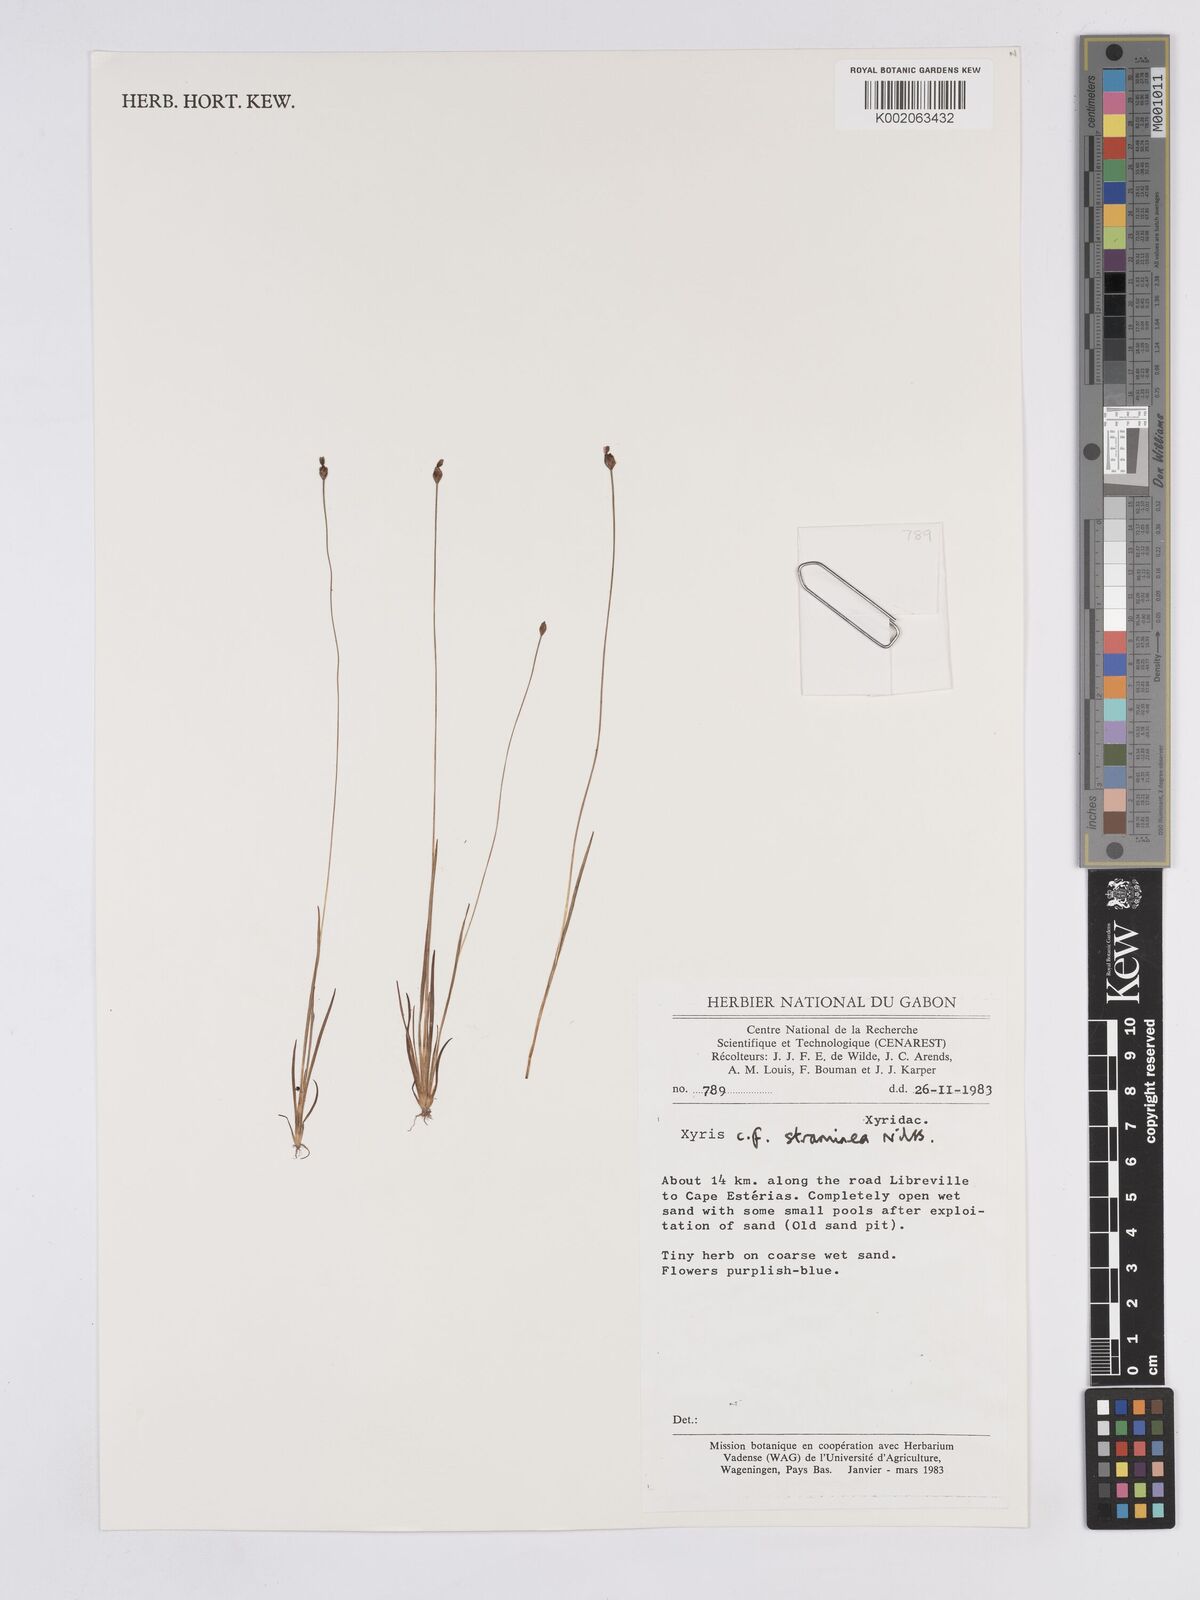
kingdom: Plantae
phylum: Tracheophyta
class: Liliopsida
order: Poales
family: Xyridaceae
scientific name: Xyridaceae
